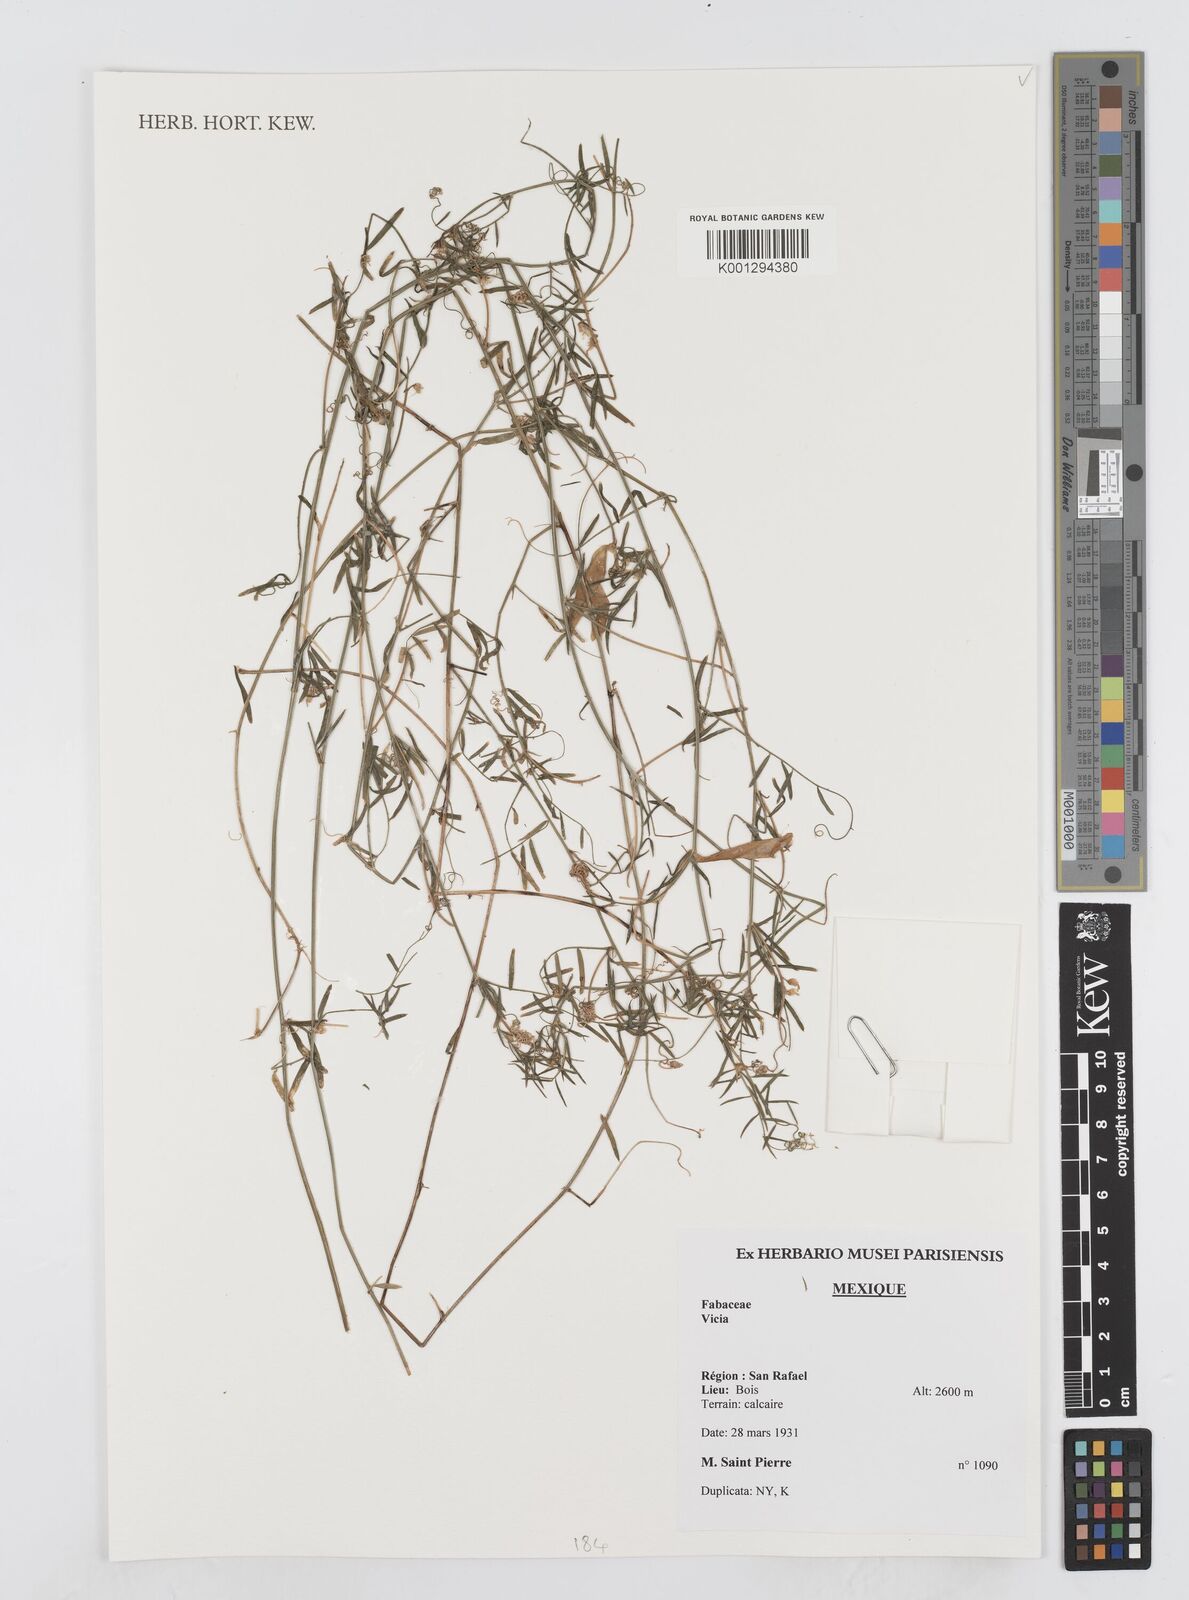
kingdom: Plantae
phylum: Tracheophyta
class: Magnoliopsida
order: Fabales
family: Fabaceae
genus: Vicia
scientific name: Vicia
